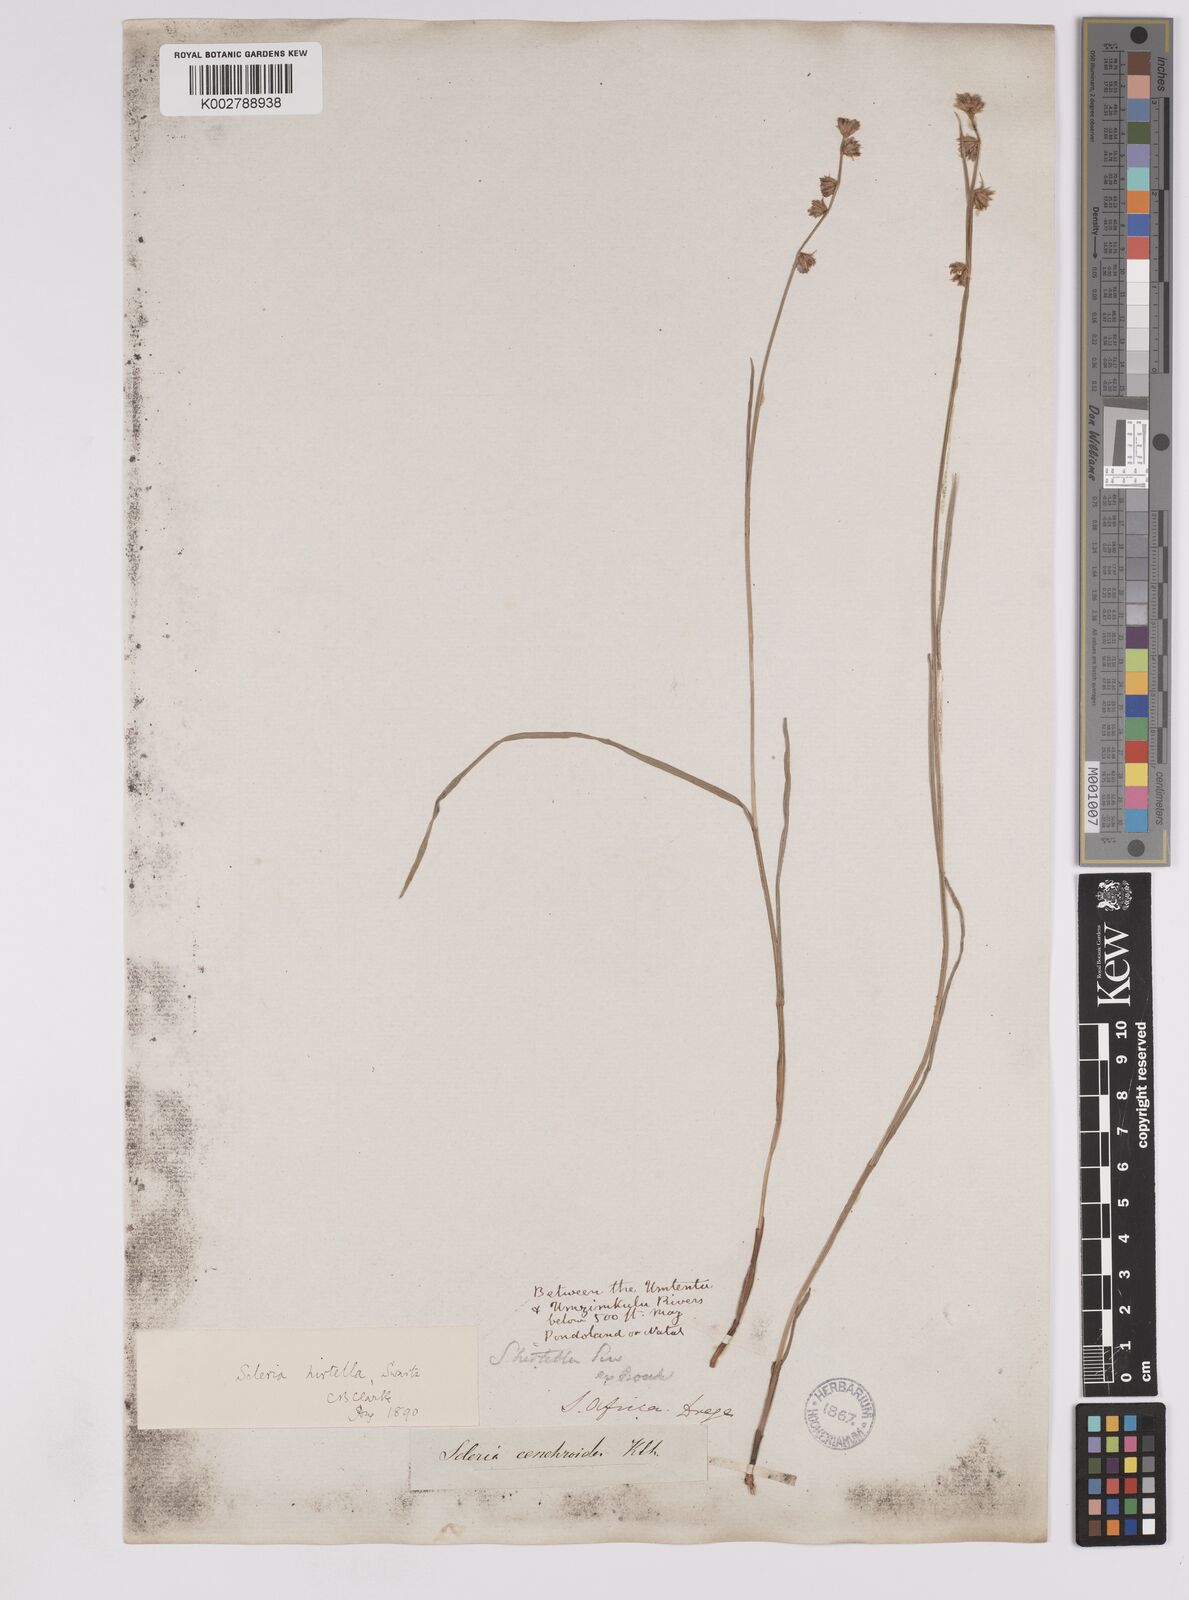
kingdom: Plantae
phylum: Tracheophyta
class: Liliopsida
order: Poales
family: Cyperaceae
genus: Scleria
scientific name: Scleria hirtella
